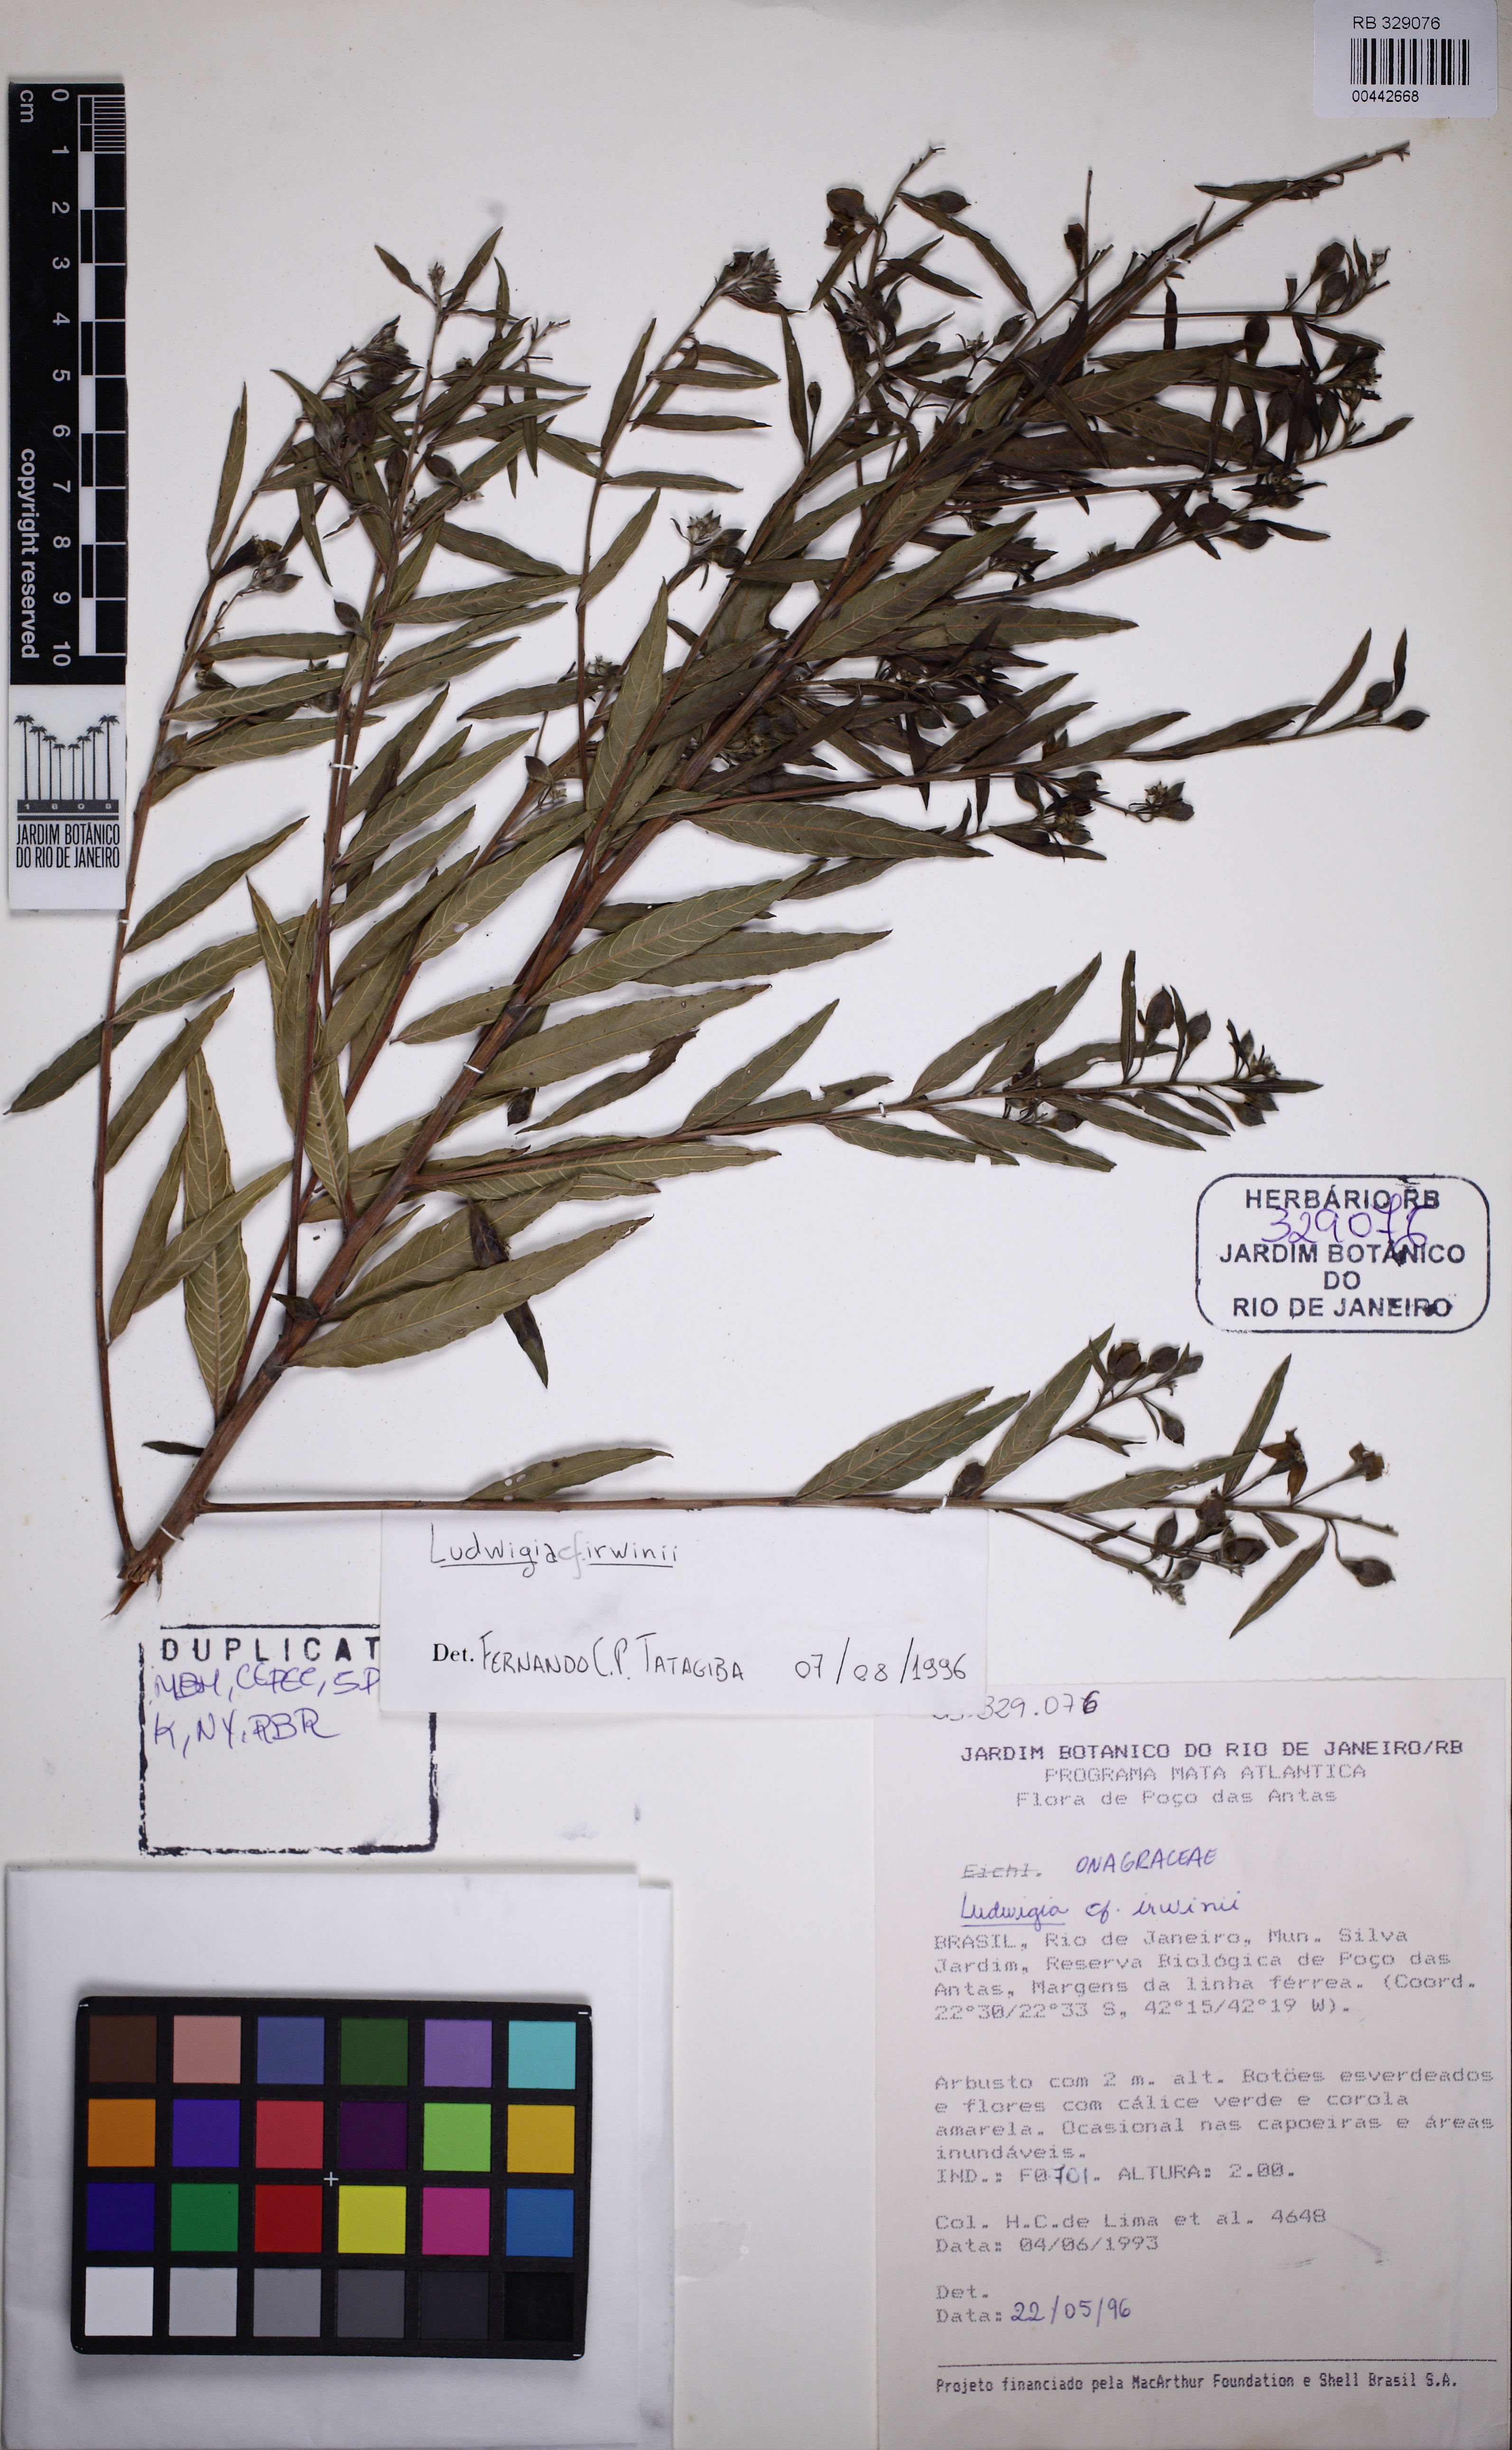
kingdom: Plantae
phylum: Tracheophyta
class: Magnoliopsida
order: Myrtales
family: Onagraceae
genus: Ludwigia
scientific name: Ludwigia irwinii
